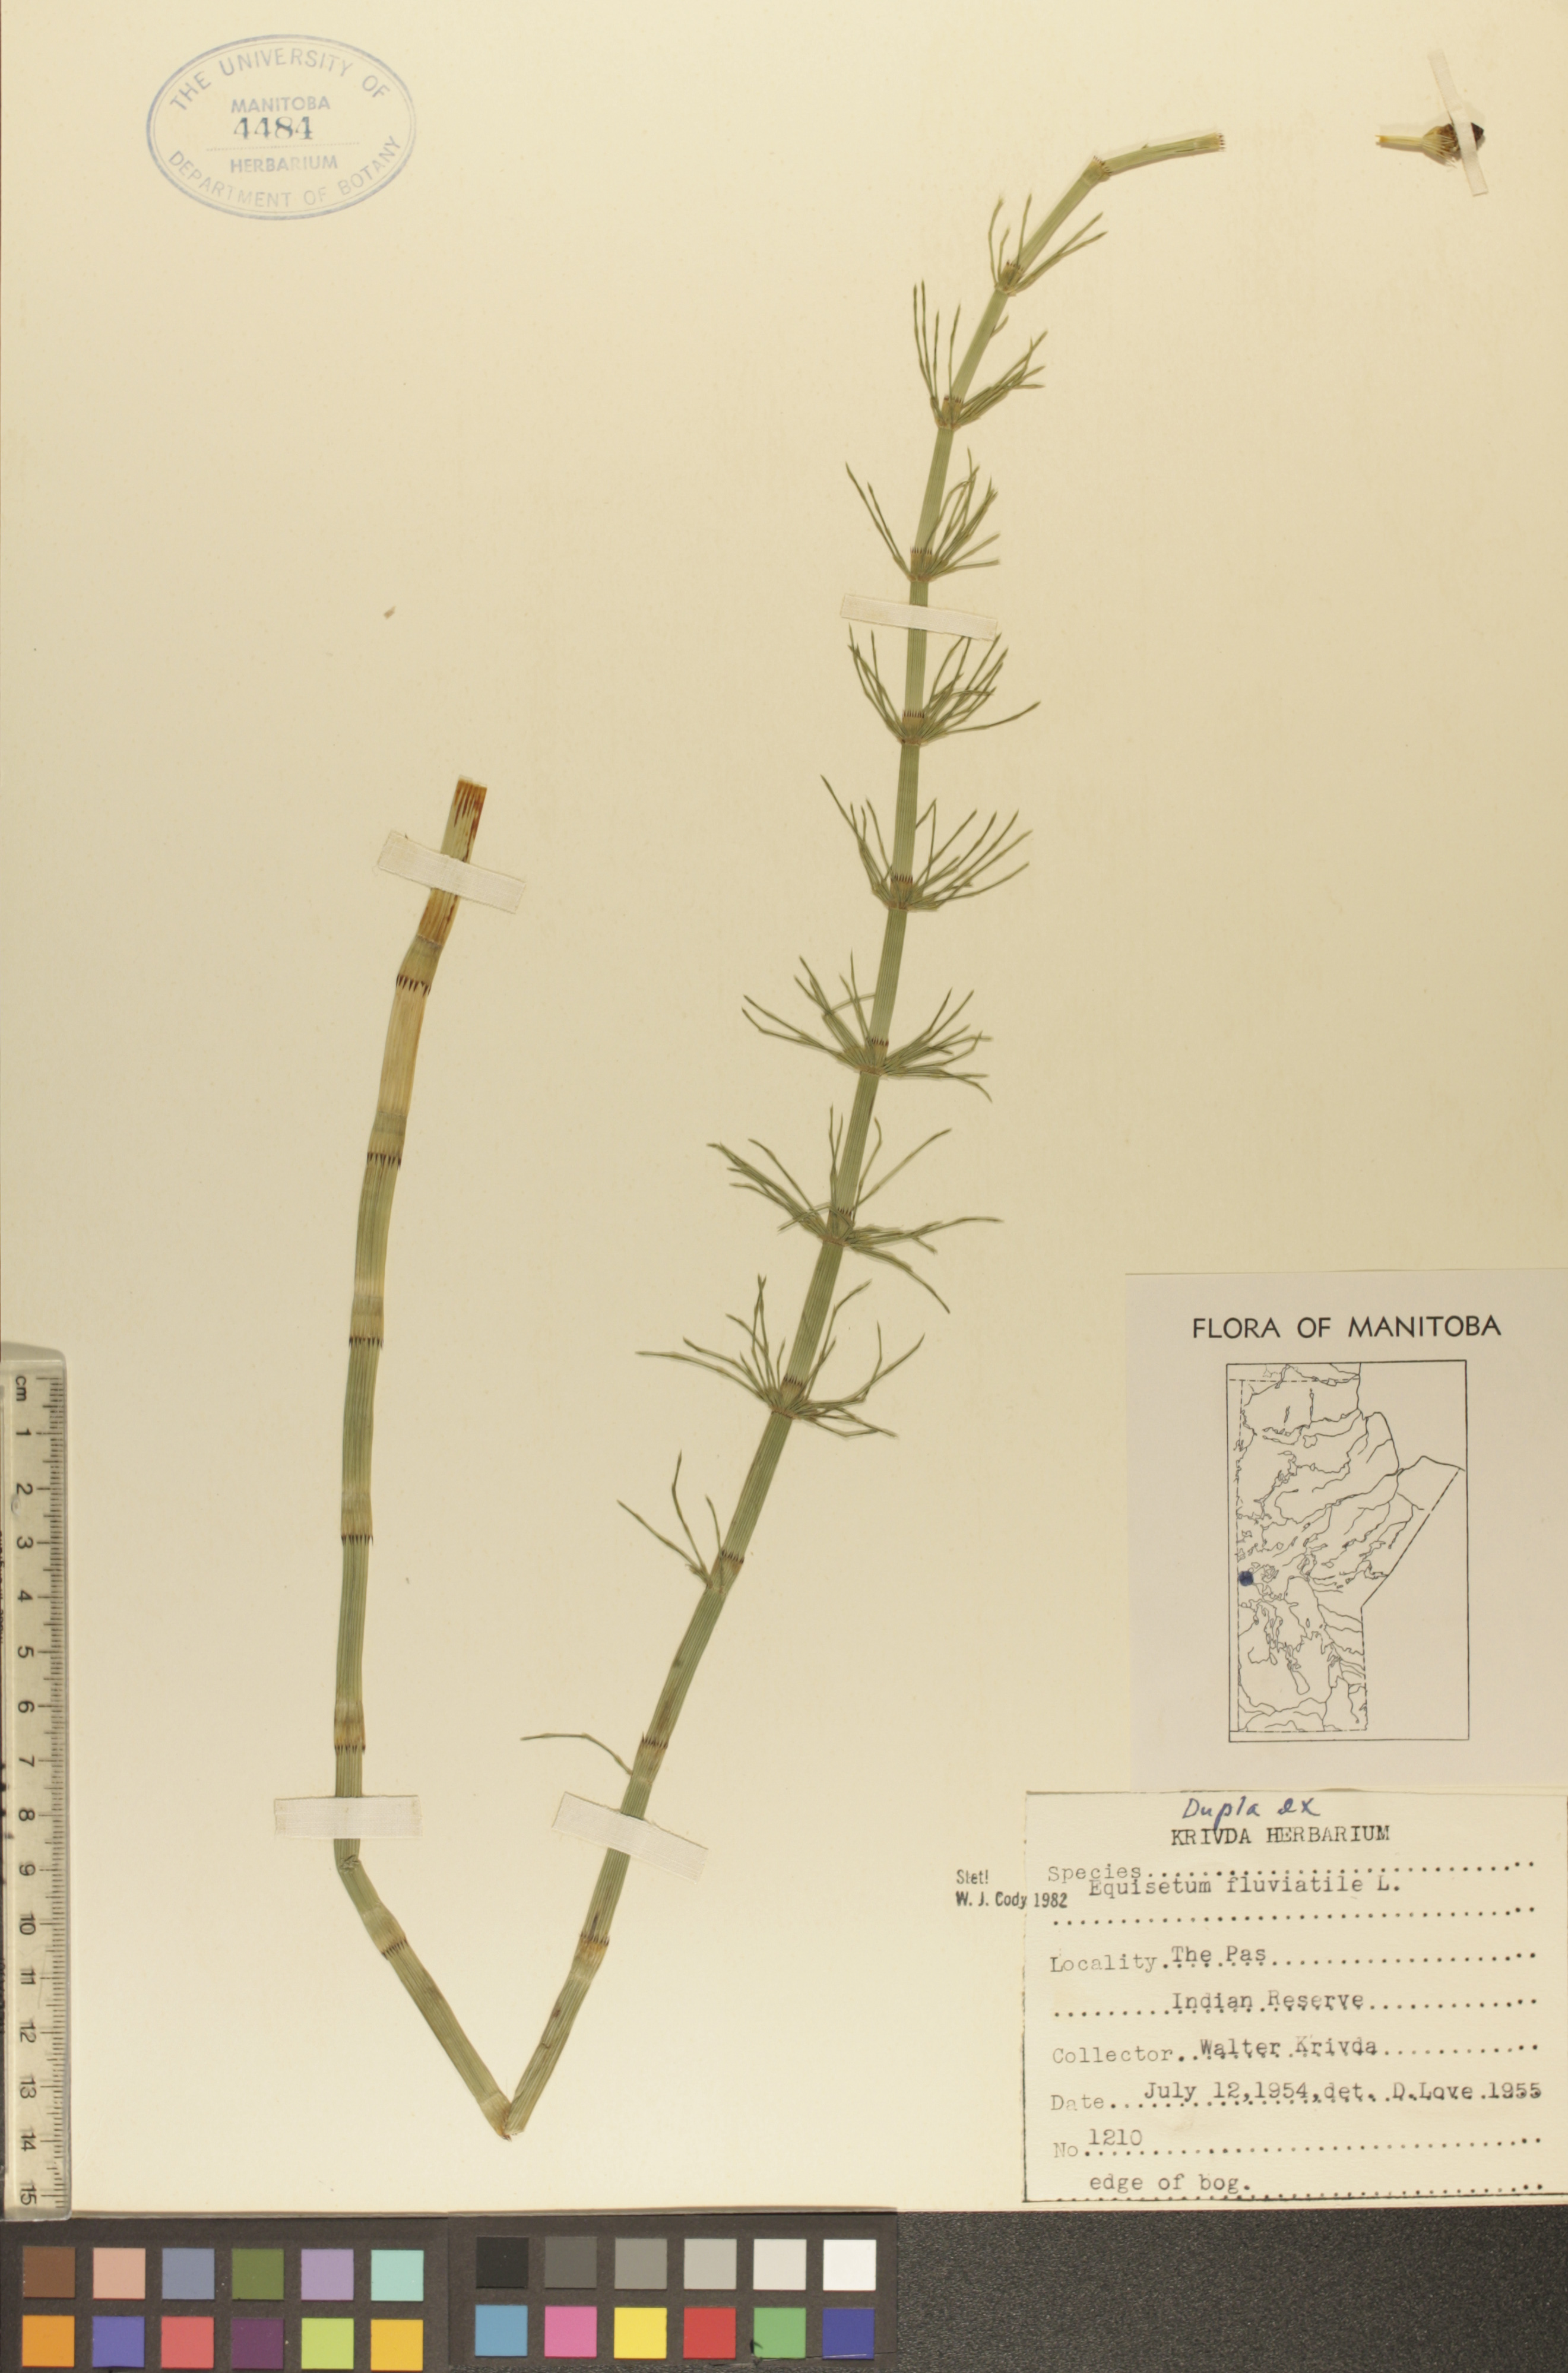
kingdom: Plantae
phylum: Tracheophyta
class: Polypodiopsida
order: Equisetales
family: Equisetaceae
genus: Equisetum
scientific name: Equisetum fluviatile
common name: Water horsetail
